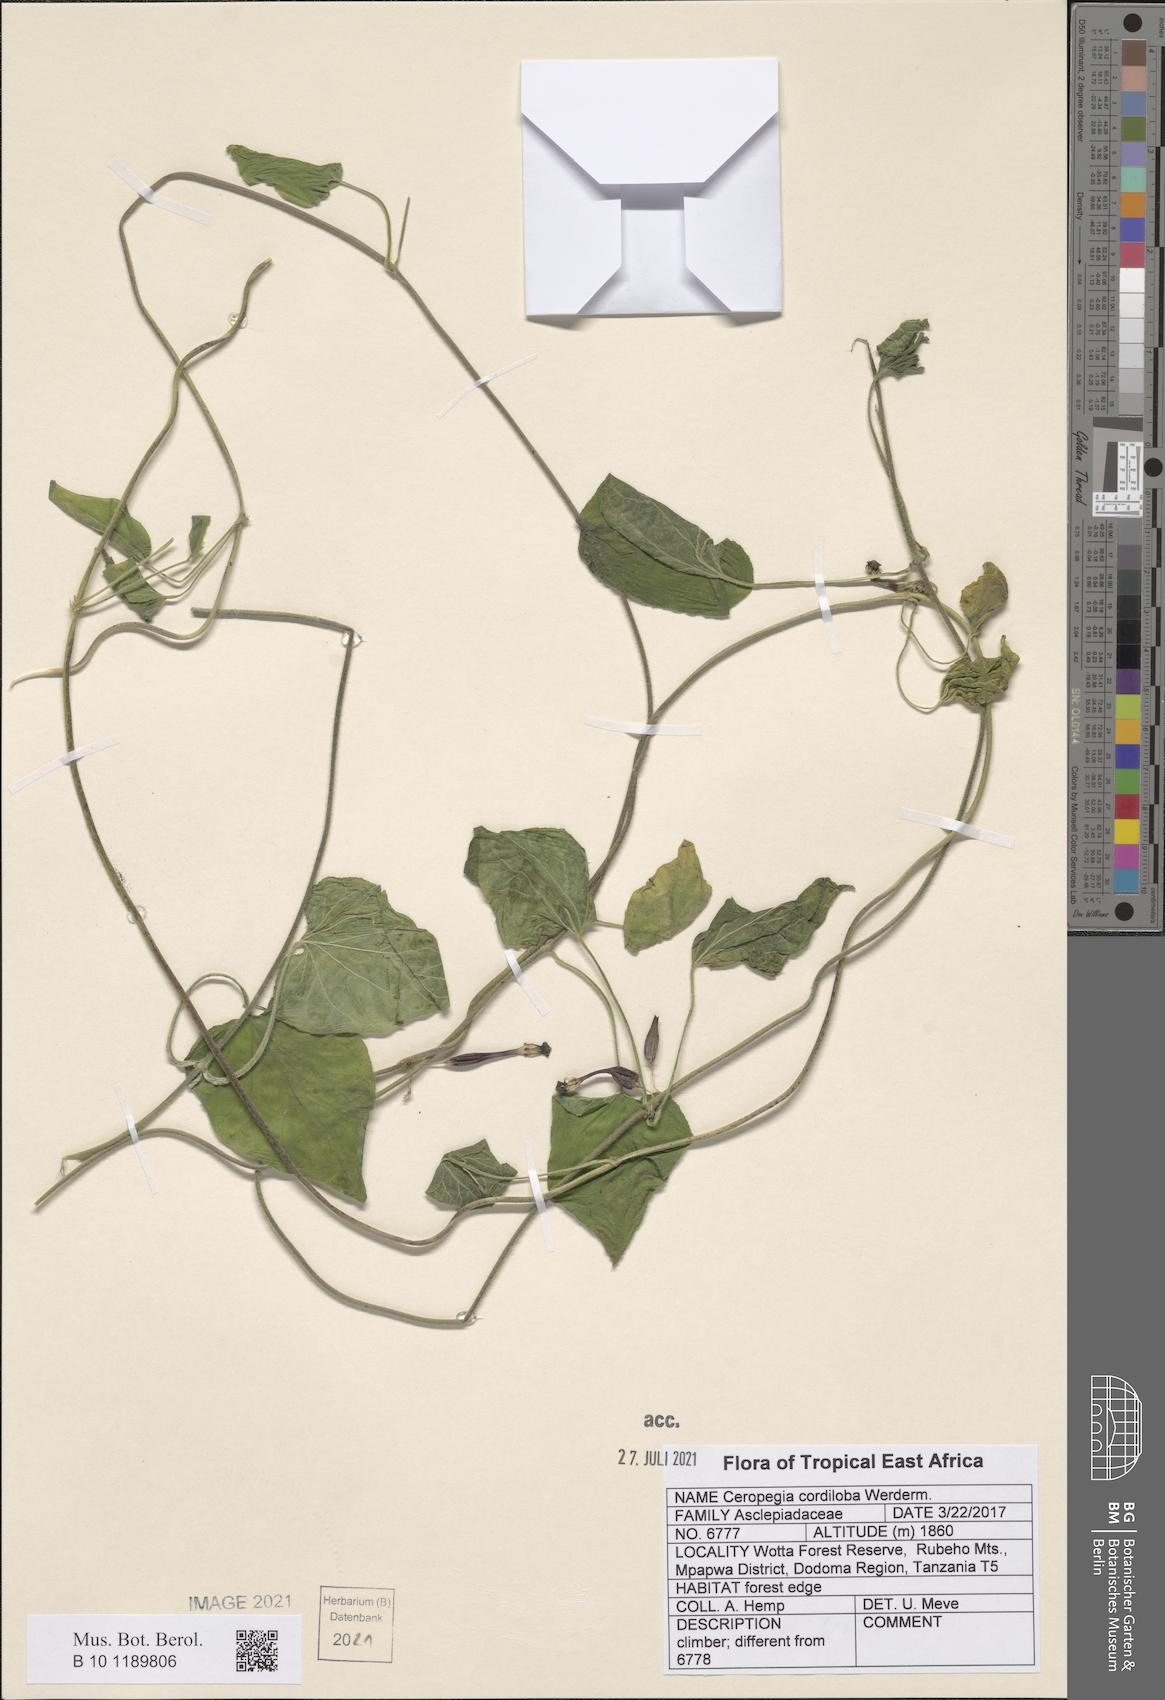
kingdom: Plantae
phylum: Tracheophyta
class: Magnoliopsida
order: Gentianales
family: Apocynaceae
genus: Ceropegia
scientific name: Ceropegia cordiloba
